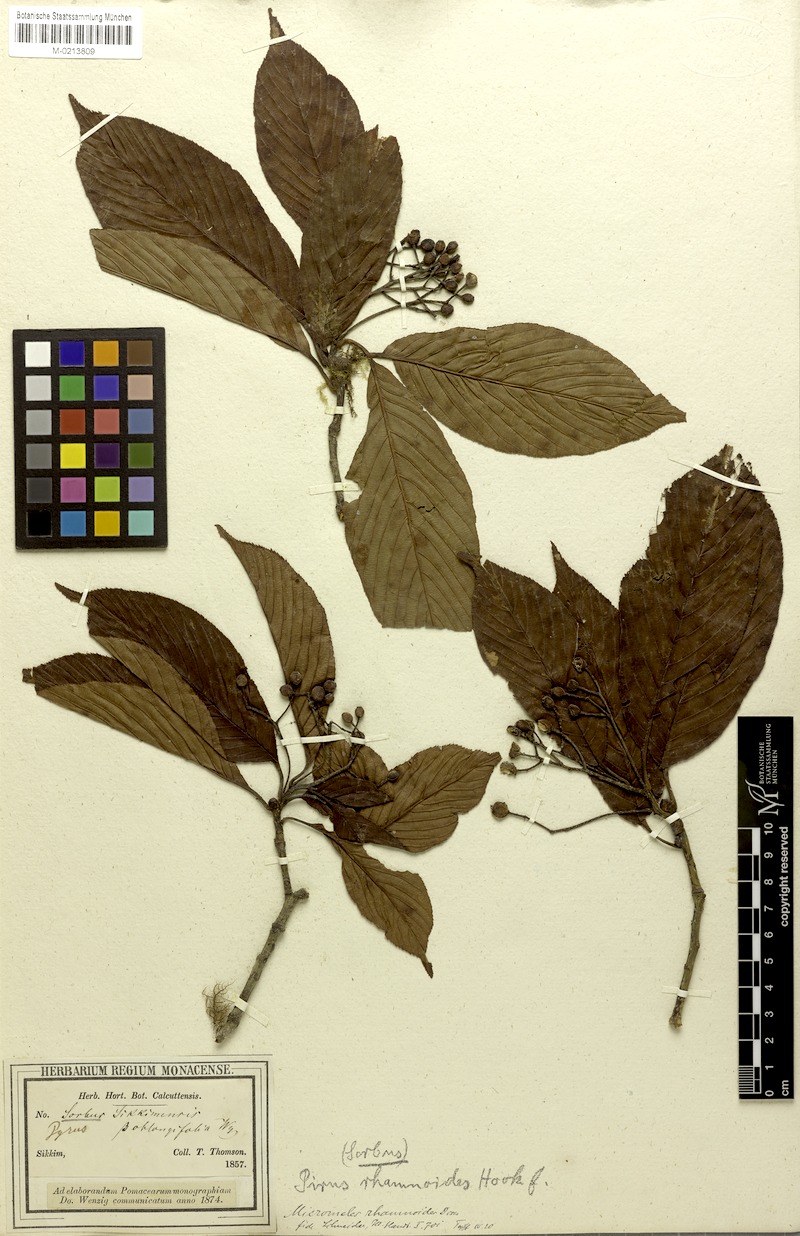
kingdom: Plantae
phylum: Tracheophyta
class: Magnoliopsida
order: Rosales
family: Rosaceae
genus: Micromeles
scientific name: Micromeles rhamnoides
